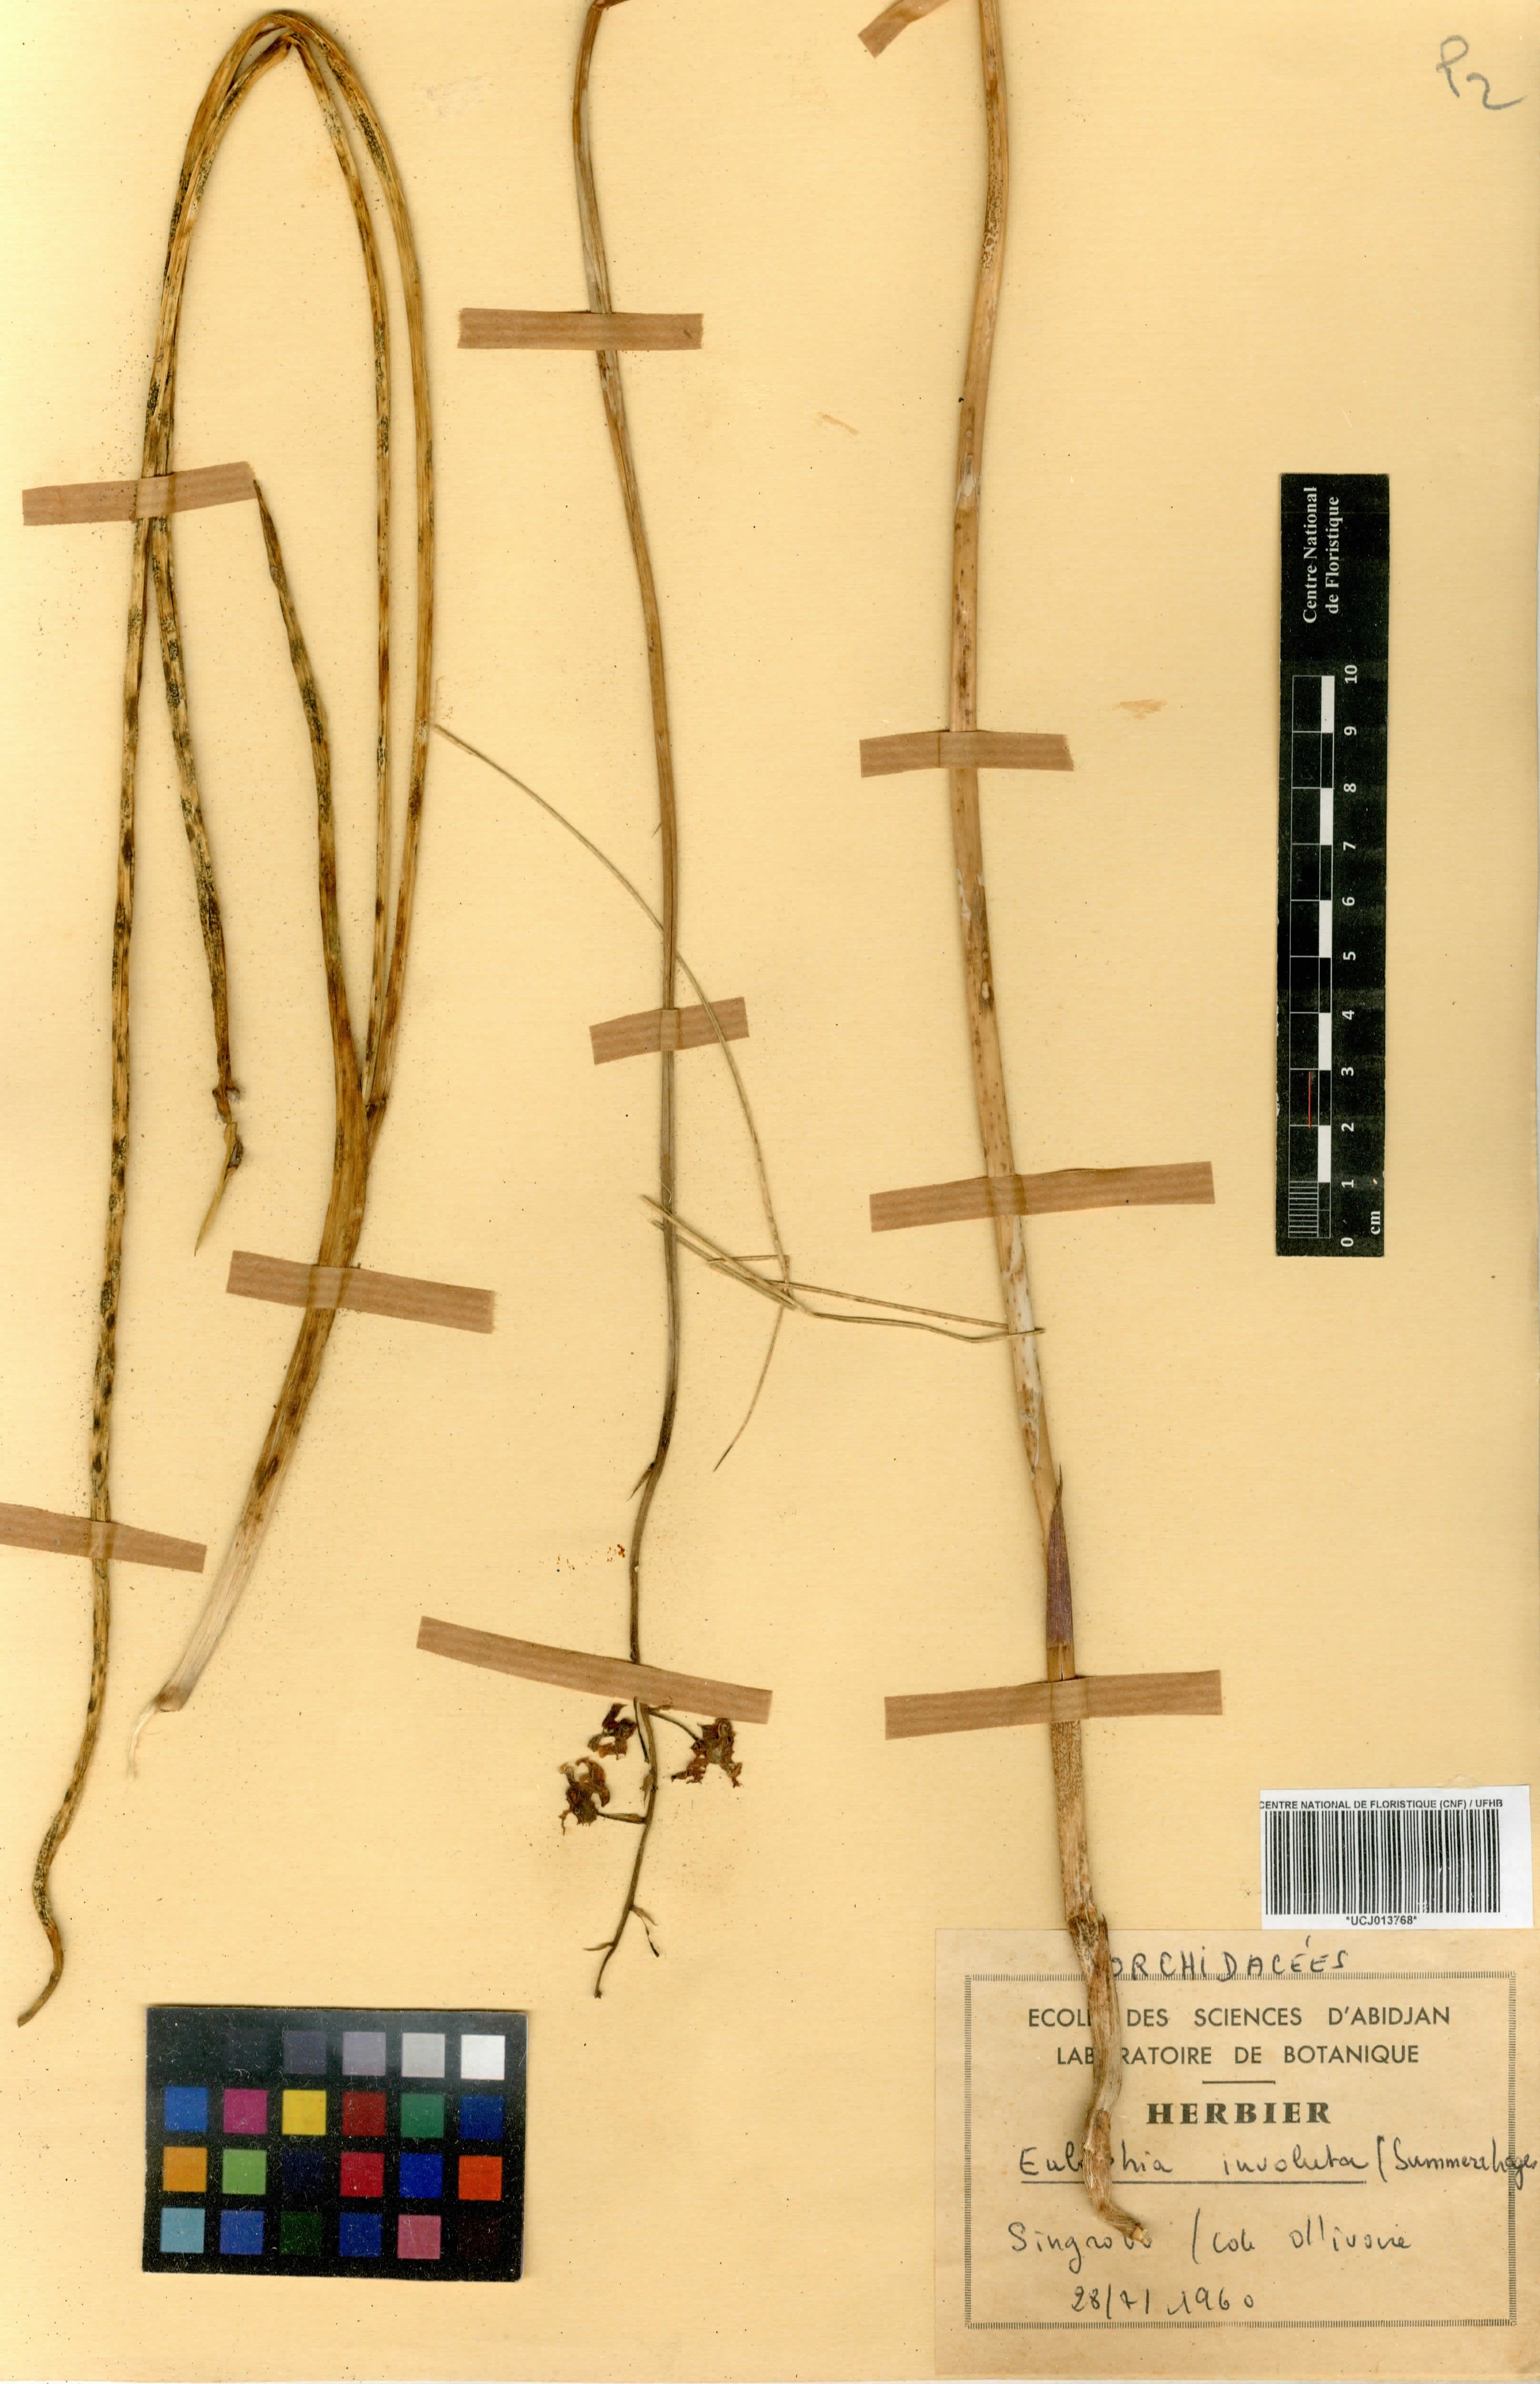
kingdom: Plantae
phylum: Tracheophyta
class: Liliopsida
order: Asparagales
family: Orchidaceae
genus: Eulophia
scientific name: Eulophia schweinfurthii
